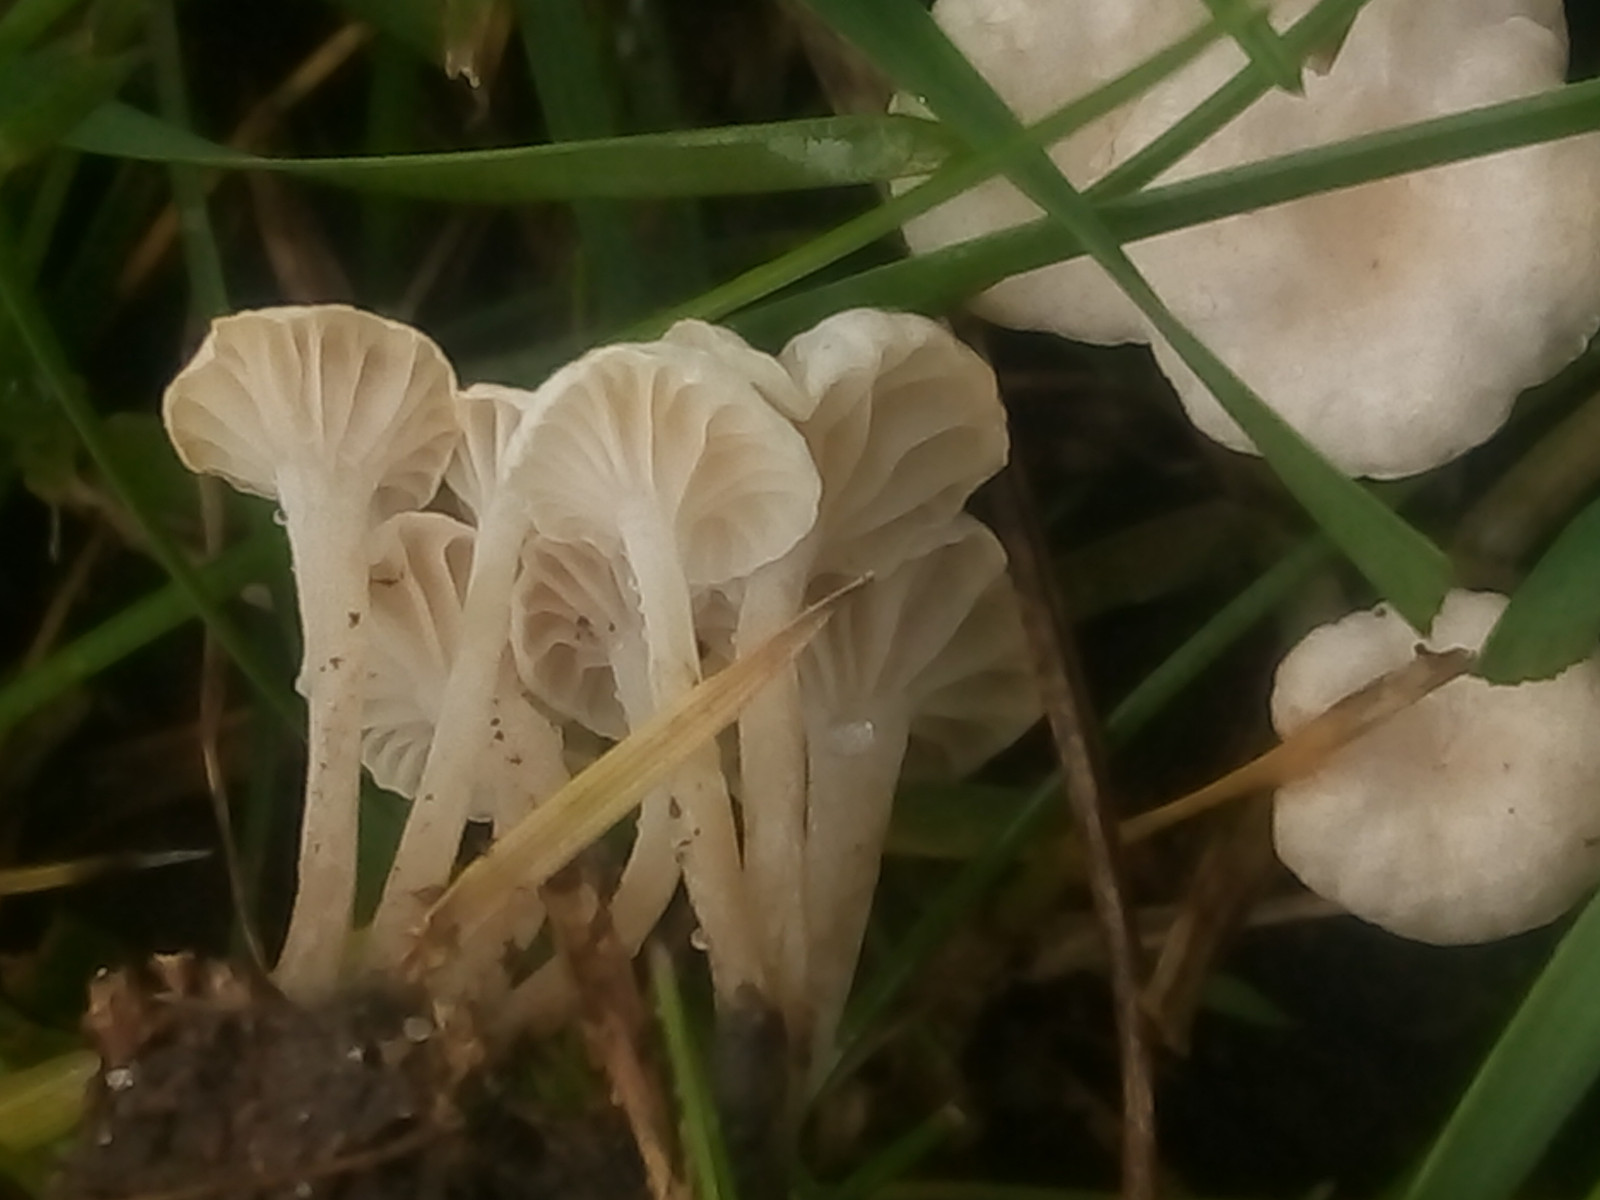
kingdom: Fungi
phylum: Basidiomycota
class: Agaricomycetes
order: Agaricales
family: Omphalotaceae
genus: Marasmiellus
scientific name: Marasmiellus tricolor
